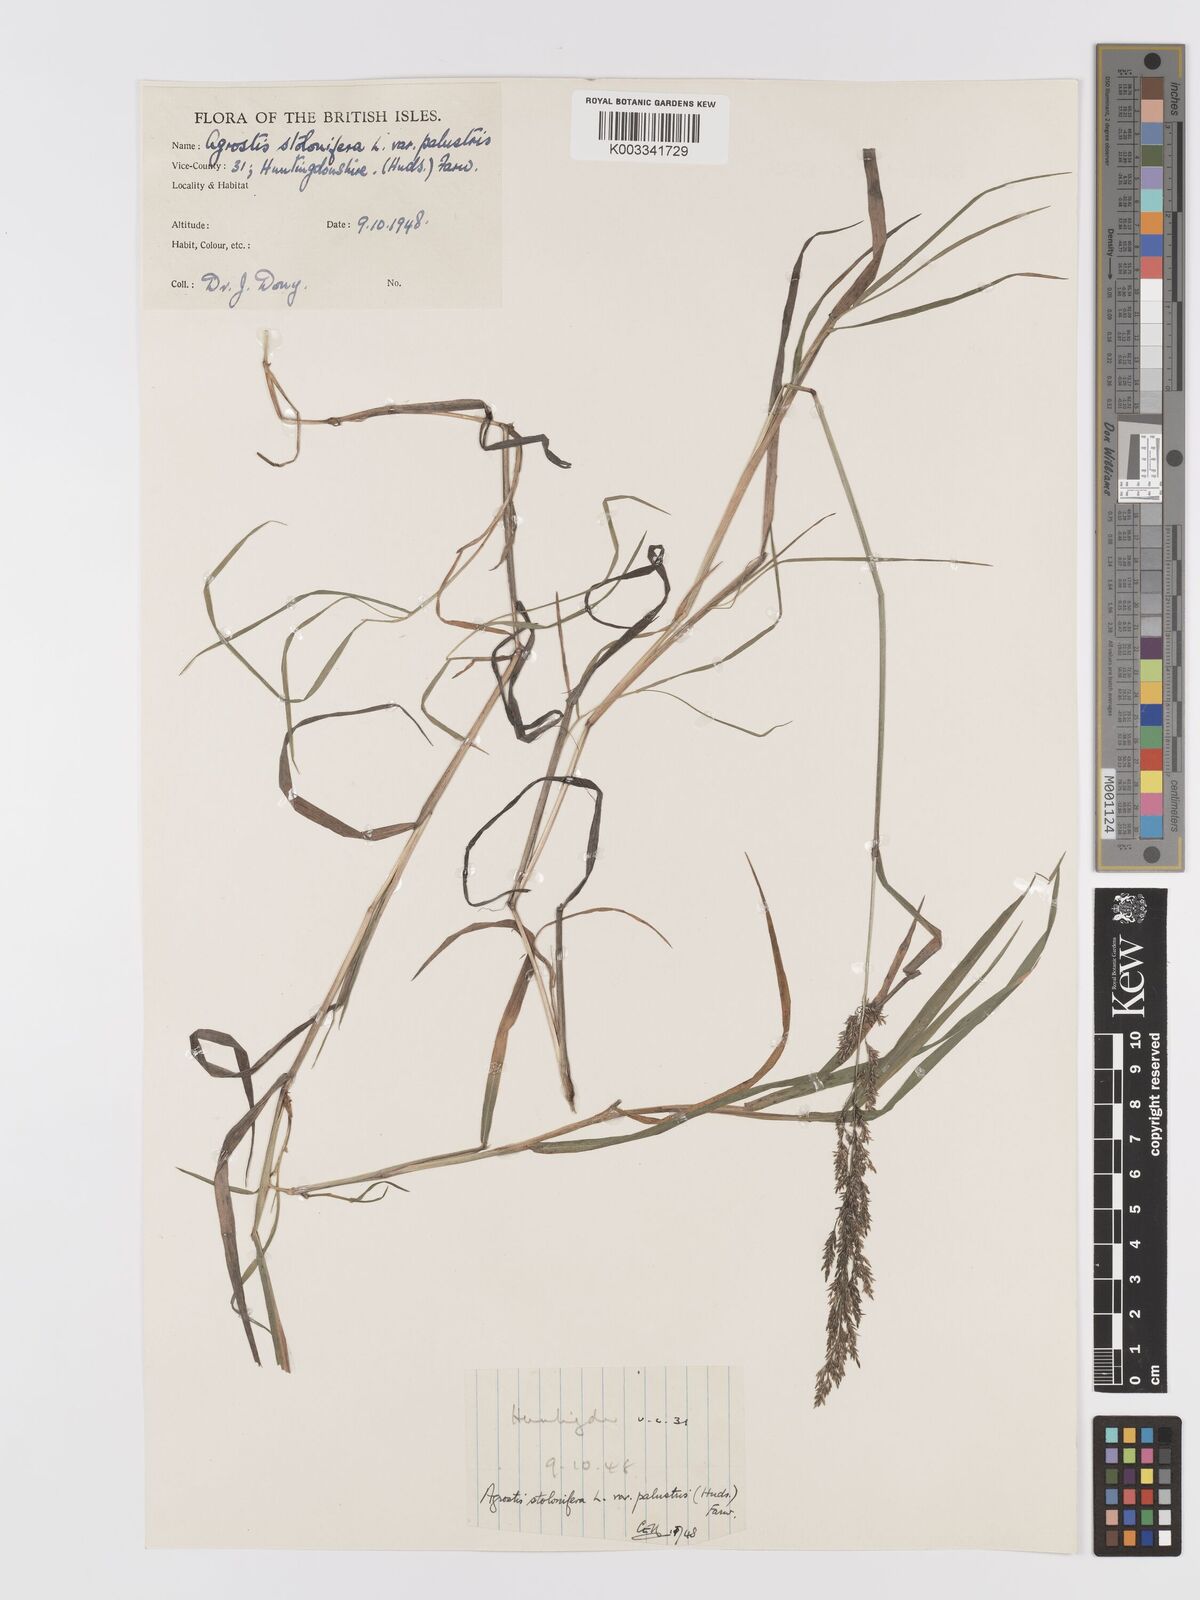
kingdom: Plantae
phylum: Tracheophyta
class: Liliopsida
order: Poales
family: Poaceae
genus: Agrostis
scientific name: Agrostis stolonifera
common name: Creeping bentgrass
